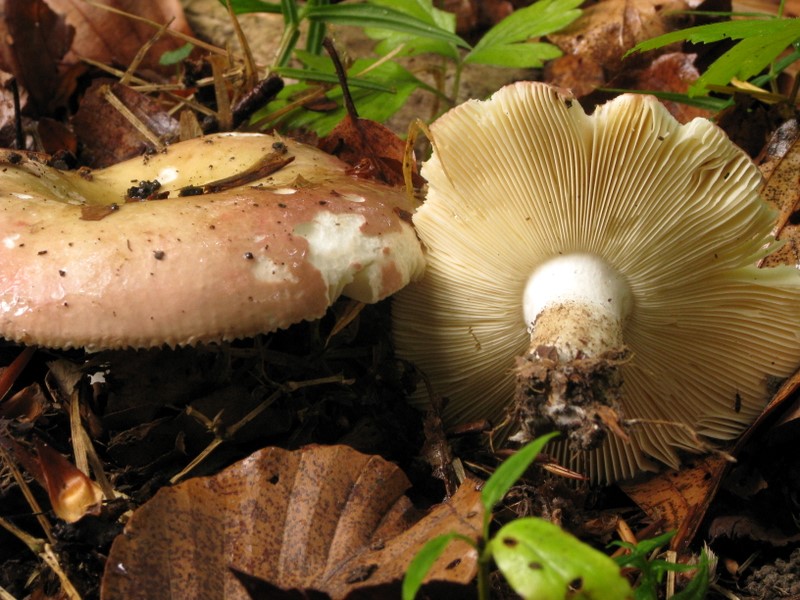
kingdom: Fungi
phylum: Basidiomycota
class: Agaricomycetes
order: Russulales
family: Russulaceae
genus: Russula
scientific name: Russula faginea
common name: bøge-skørhat
